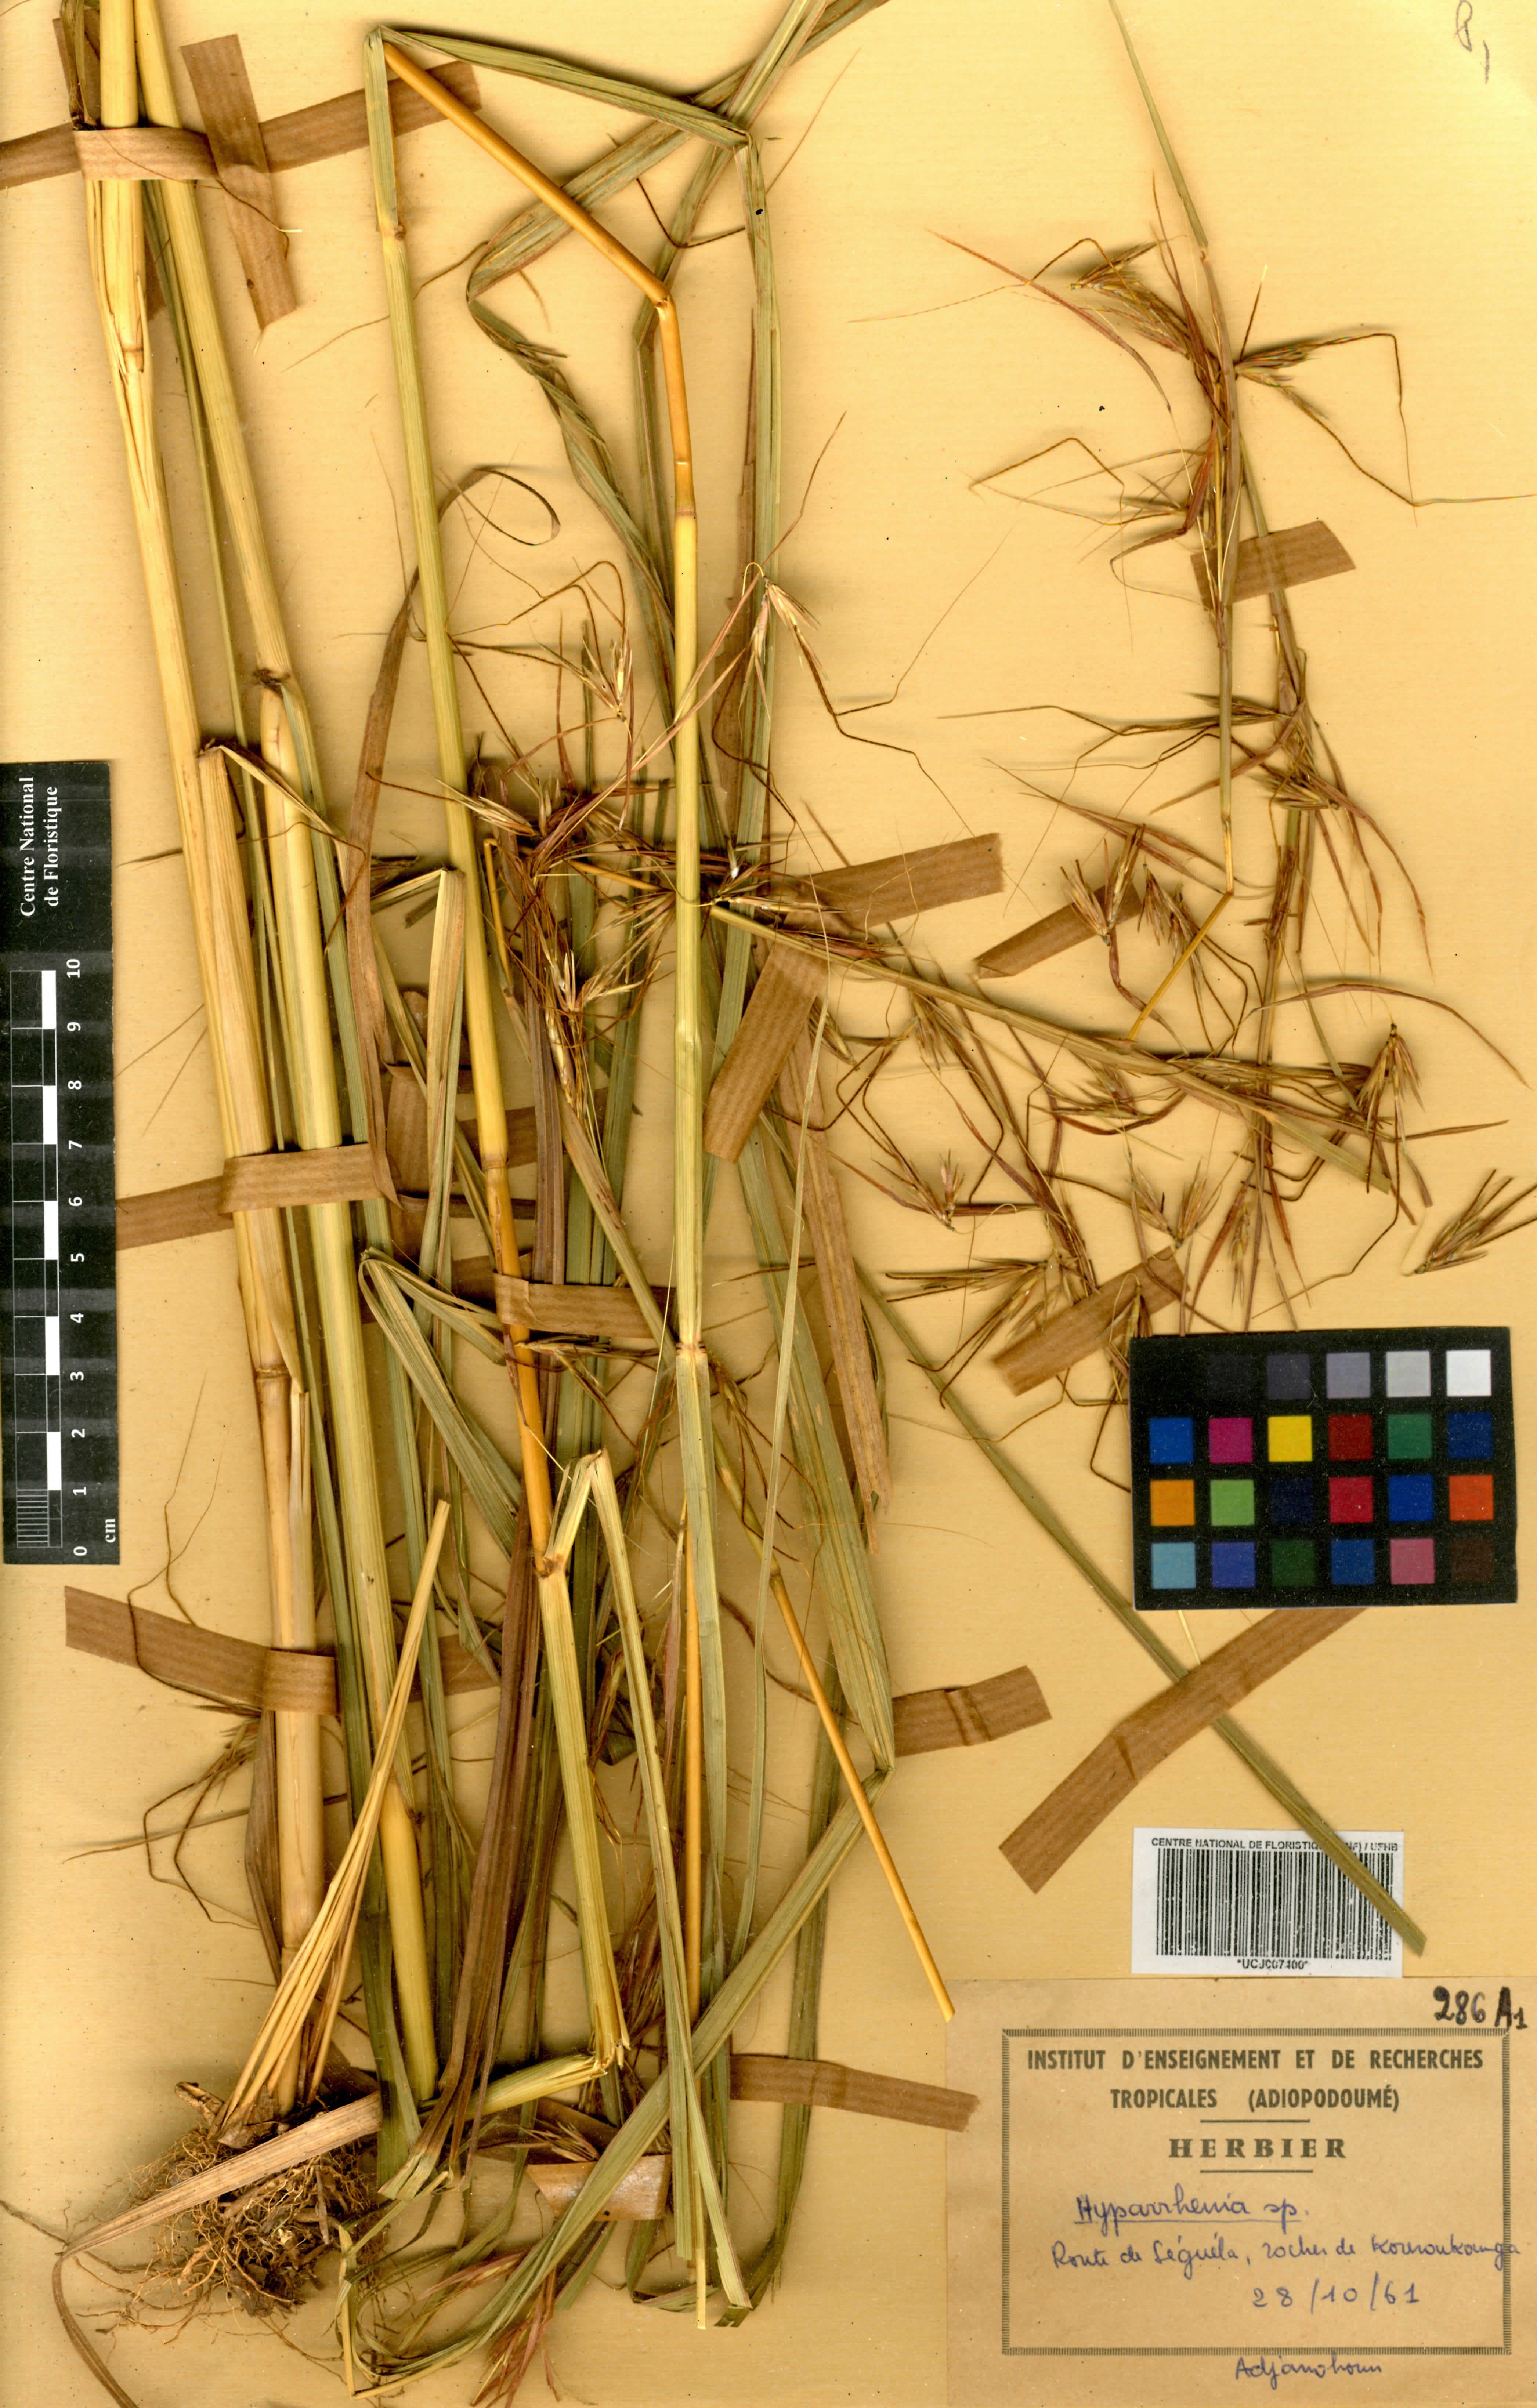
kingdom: Plantae
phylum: Tracheophyta
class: Liliopsida
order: Poales
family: Poaceae
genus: Hyparrhenia
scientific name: Hyparrhenia
